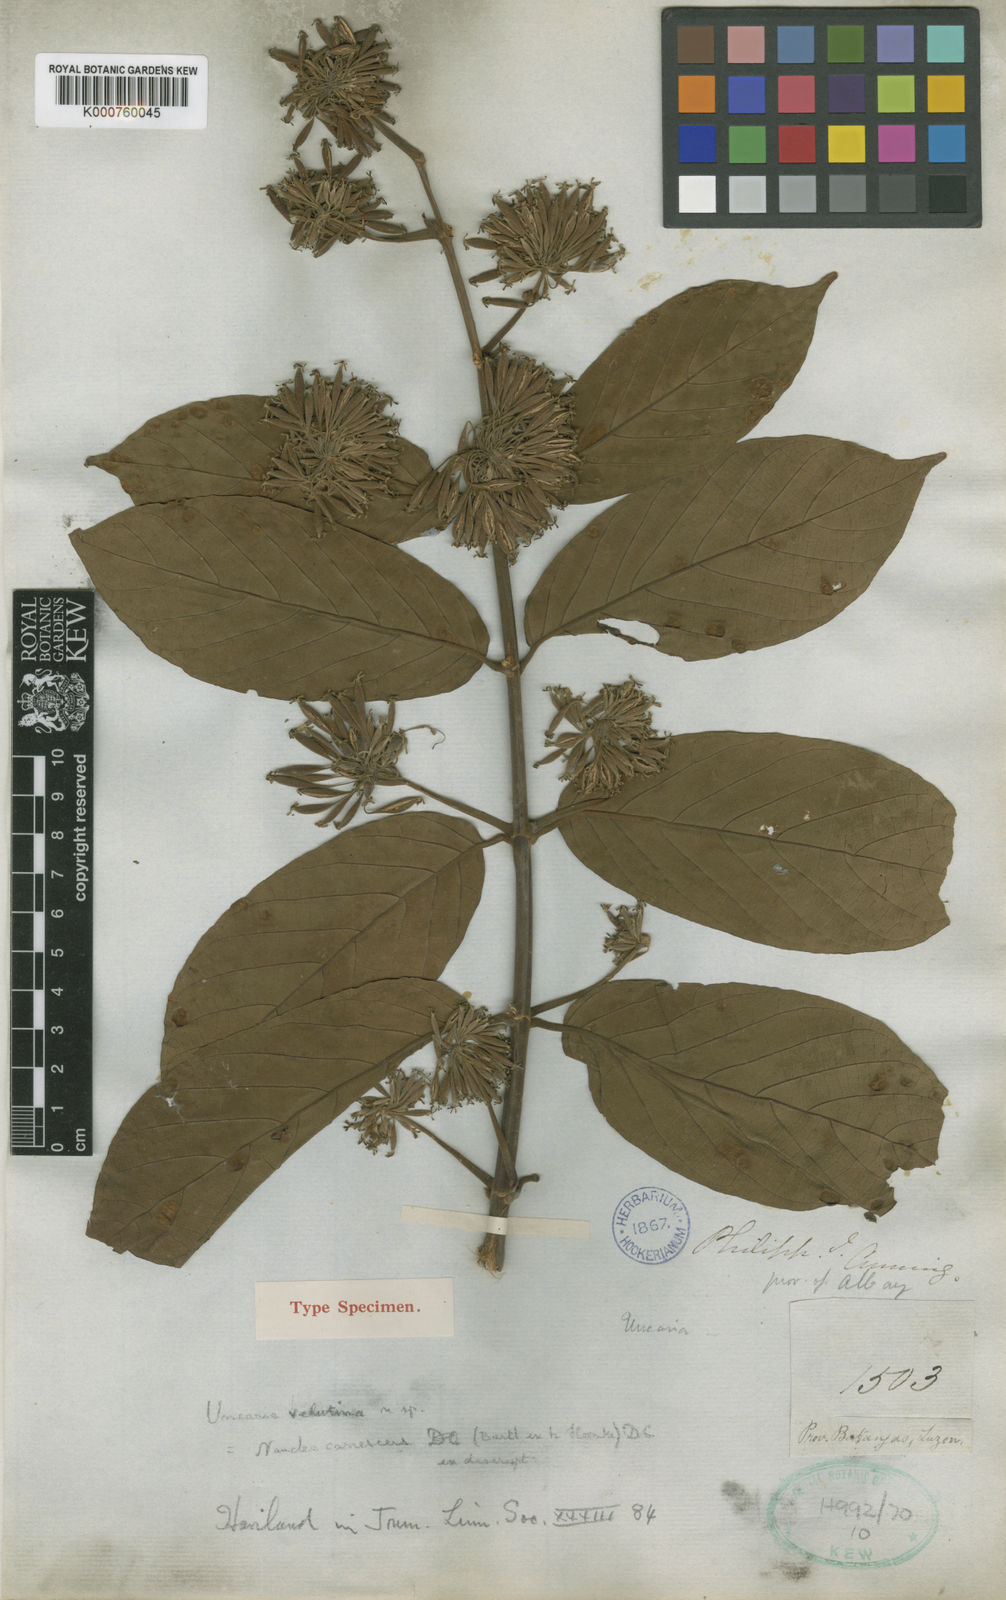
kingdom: Plantae
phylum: Tracheophyta
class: Magnoliopsida
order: Gentianales
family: Rubiaceae
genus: Uncaria
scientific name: Uncaria velutina
